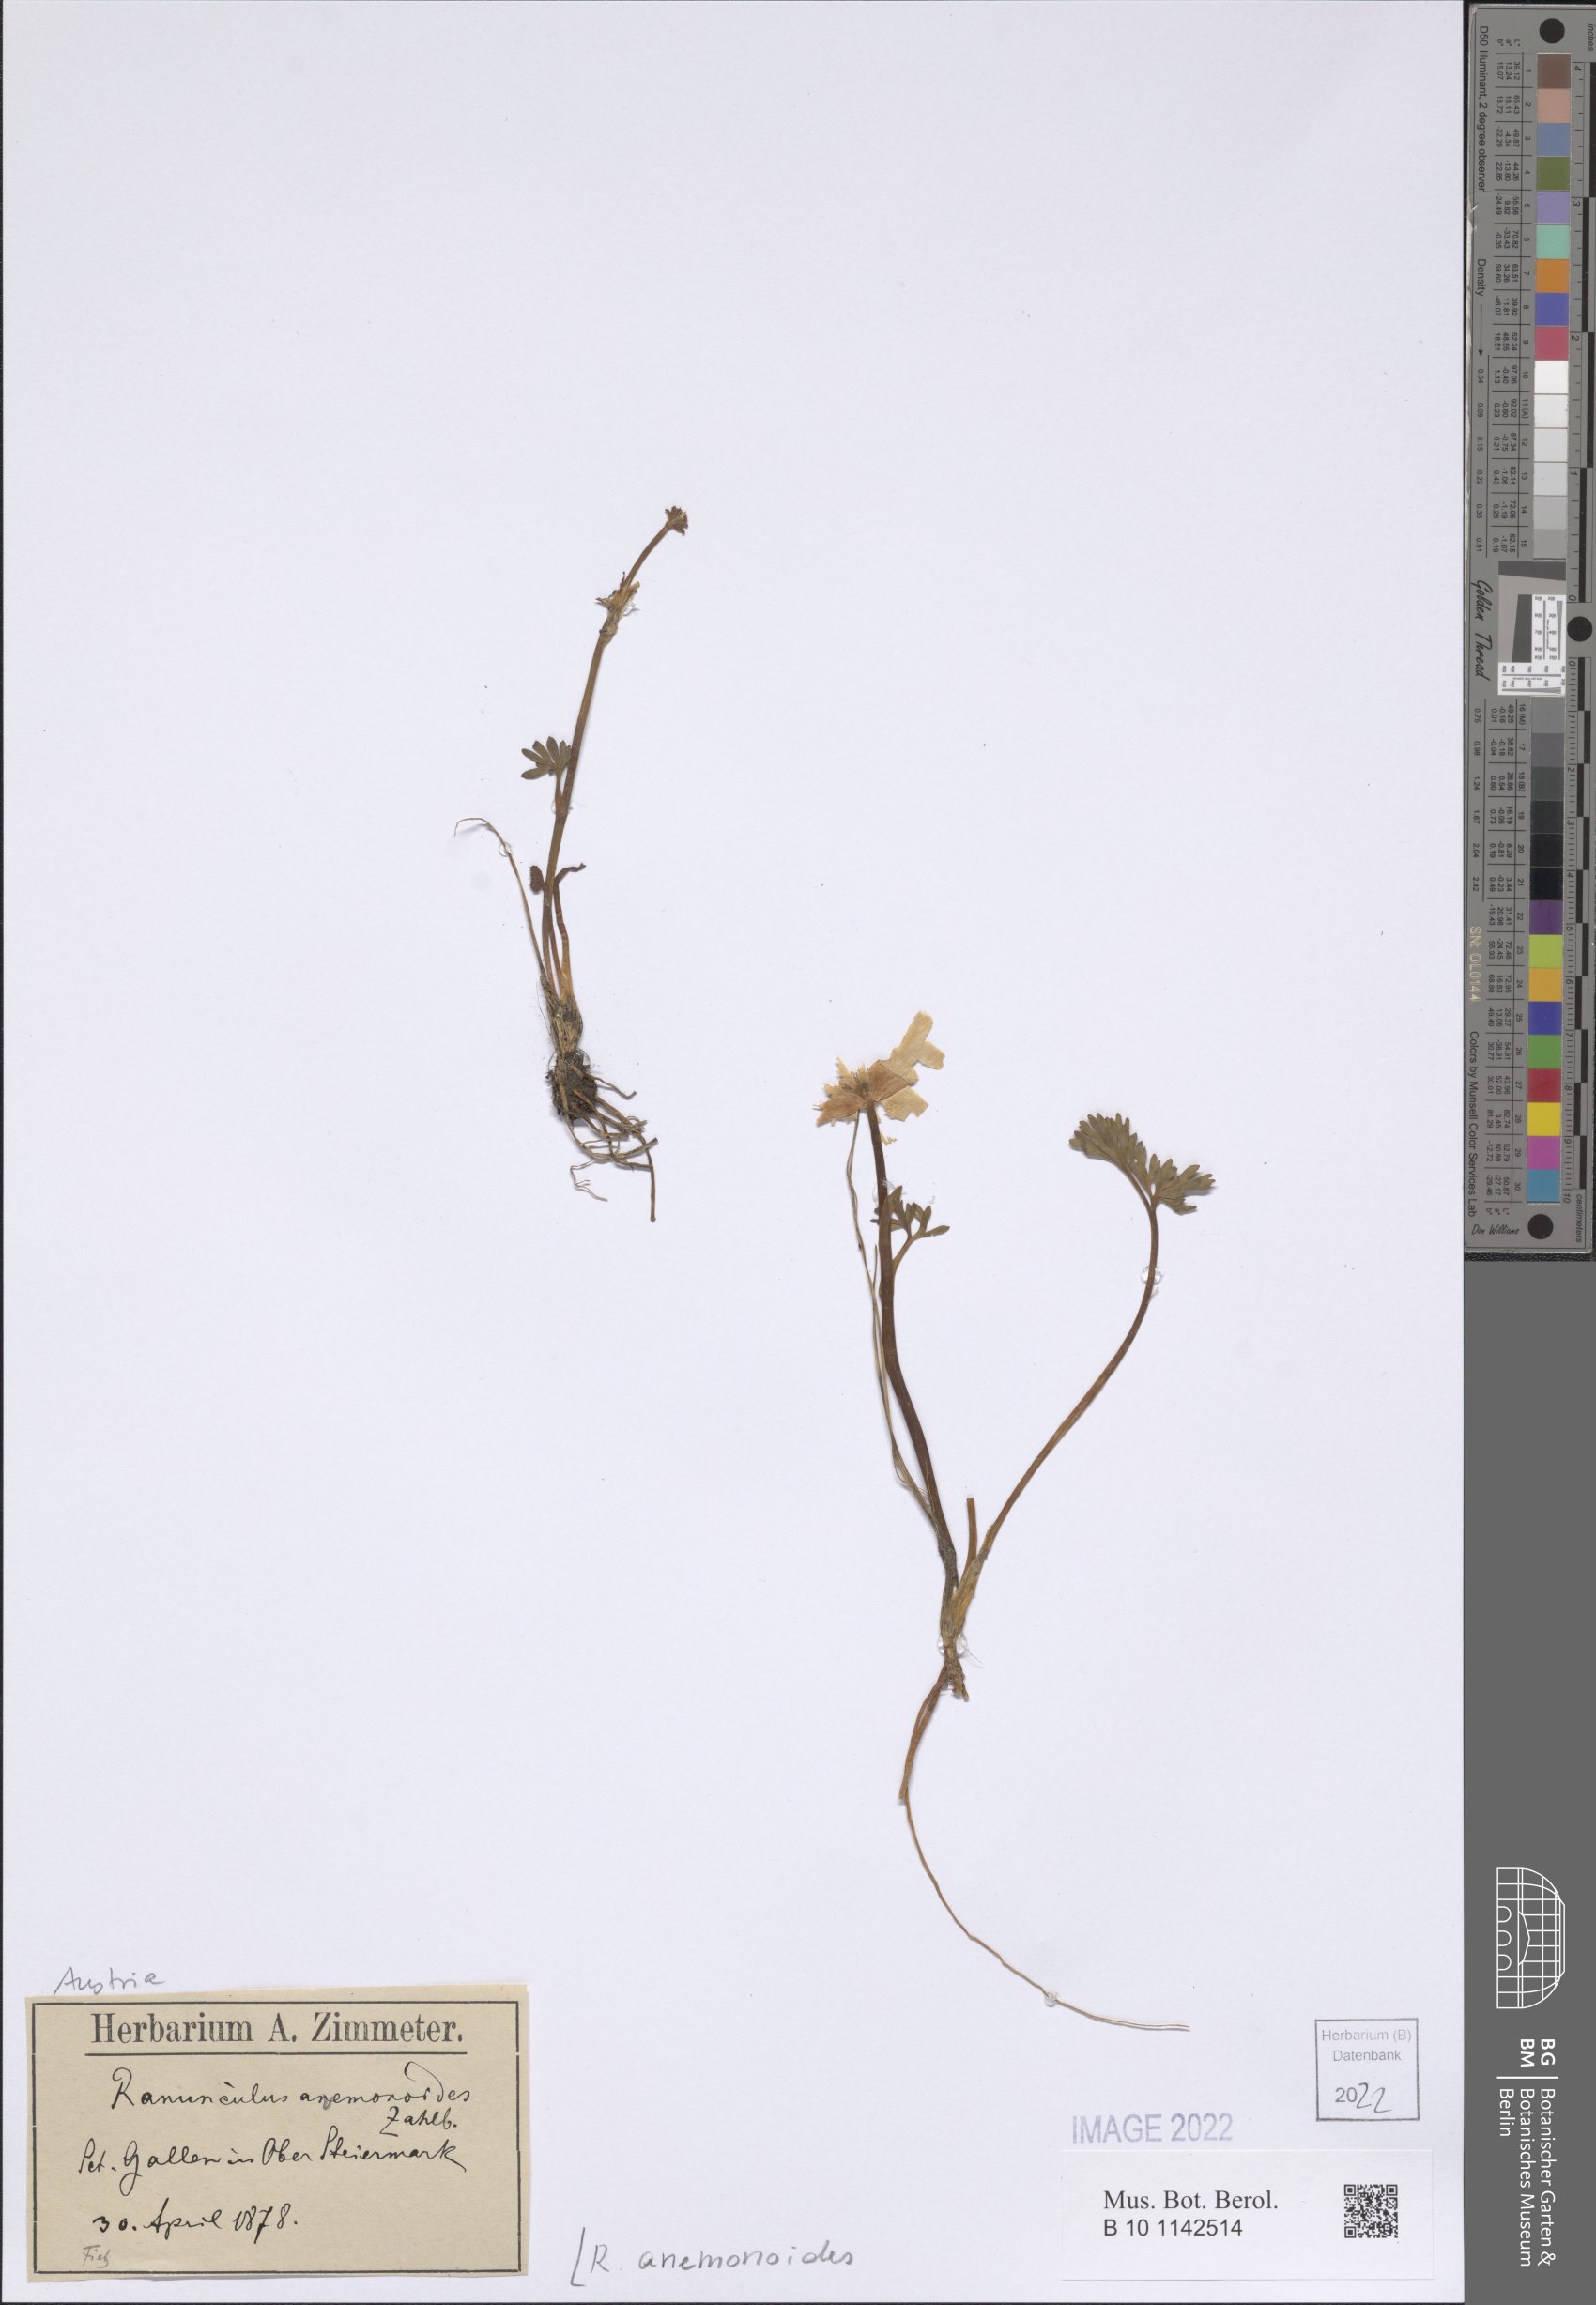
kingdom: Plantae
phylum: Tracheophyta
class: Magnoliopsida
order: Ranunculales
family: Ranunculaceae
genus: Callianthemum
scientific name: Callianthemum anemonoides
